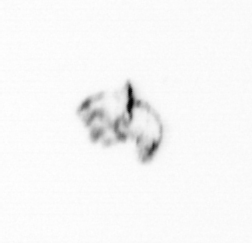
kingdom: Animalia
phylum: Arthropoda
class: Maxillopoda
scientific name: Maxillopoda
